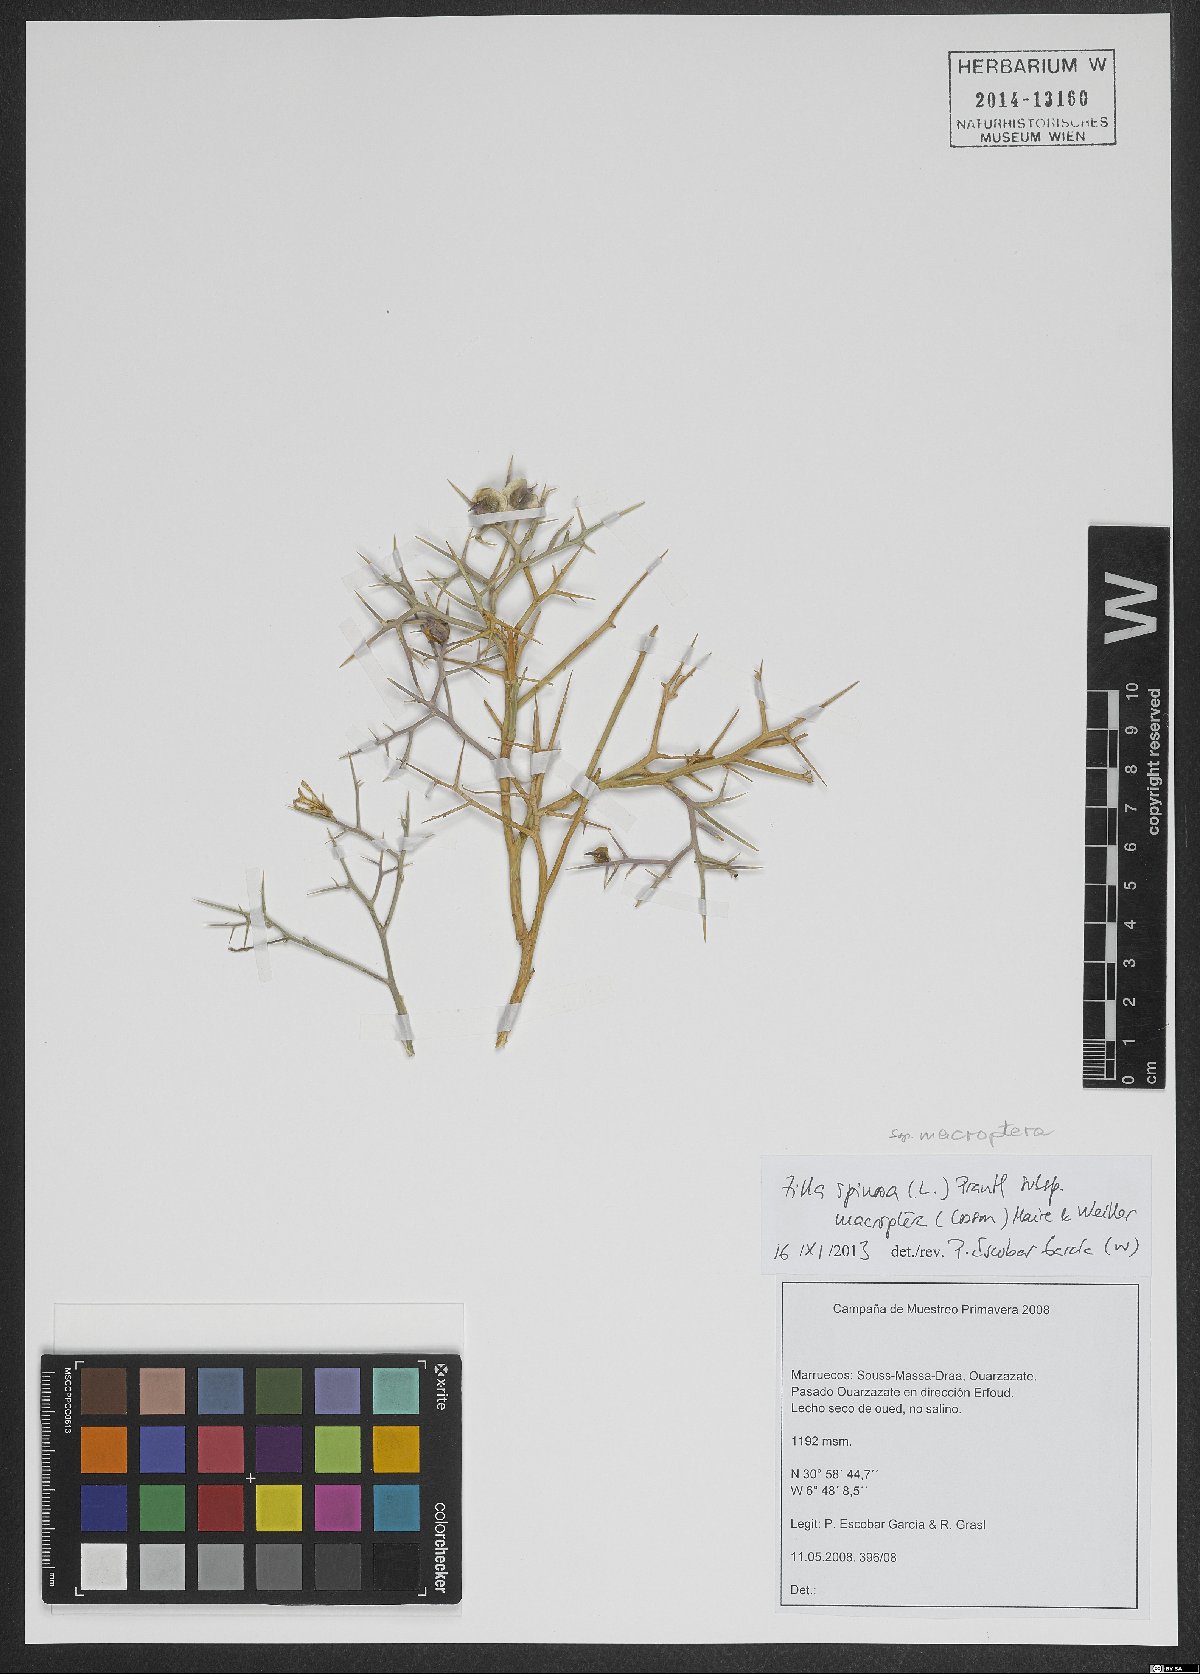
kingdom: Plantae
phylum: Tracheophyta
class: Magnoliopsida
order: Brassicales
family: Brassicaceae
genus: Zilla
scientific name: Zilla macroptera
